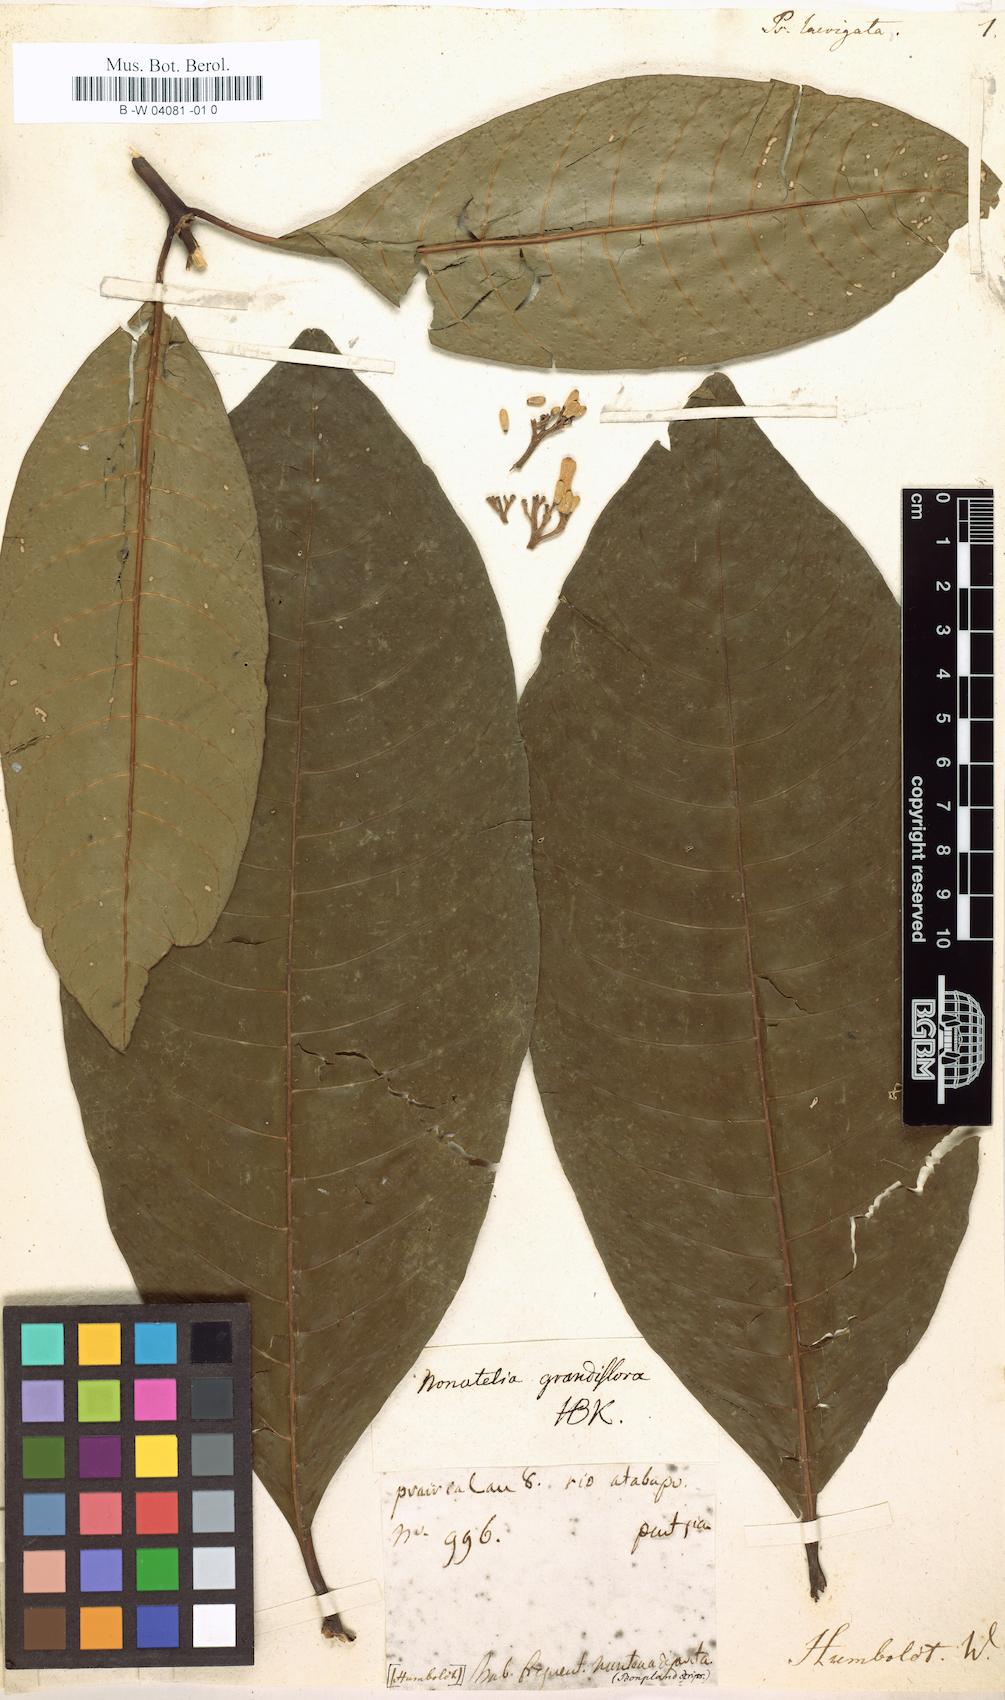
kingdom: Plantae
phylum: Tracheophyta
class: Magnoliopsida
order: Gentianales
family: Rubiaceae
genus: Palicourea
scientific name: Palicourea laevigata
